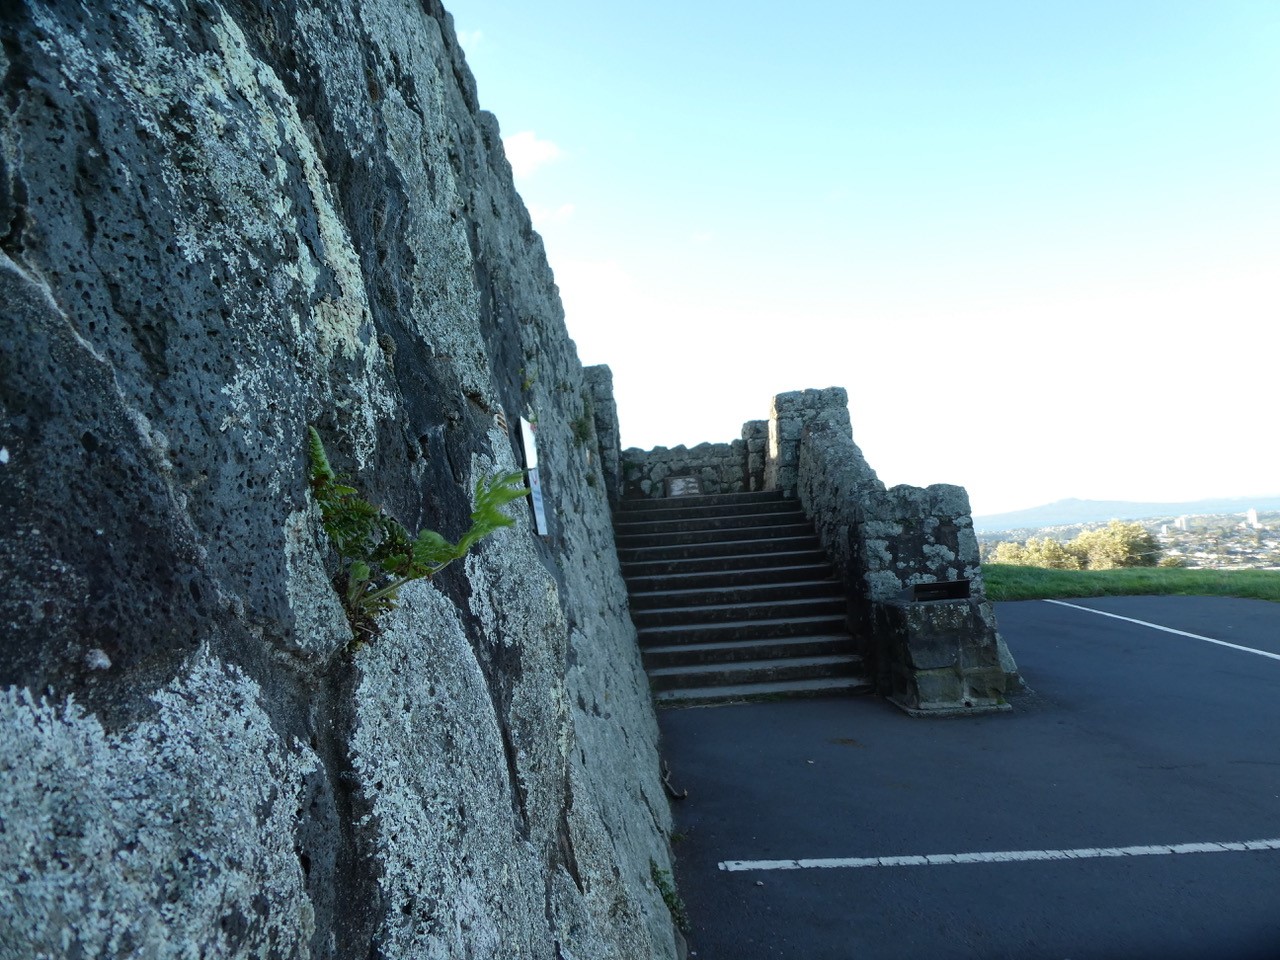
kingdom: Plantae
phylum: Tracheophyta
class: Polypodiopsida
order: Polypodiales
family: Dennstaedtiaceae
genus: Pteridium
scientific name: Pteridium esculentum
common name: Bracken fern
